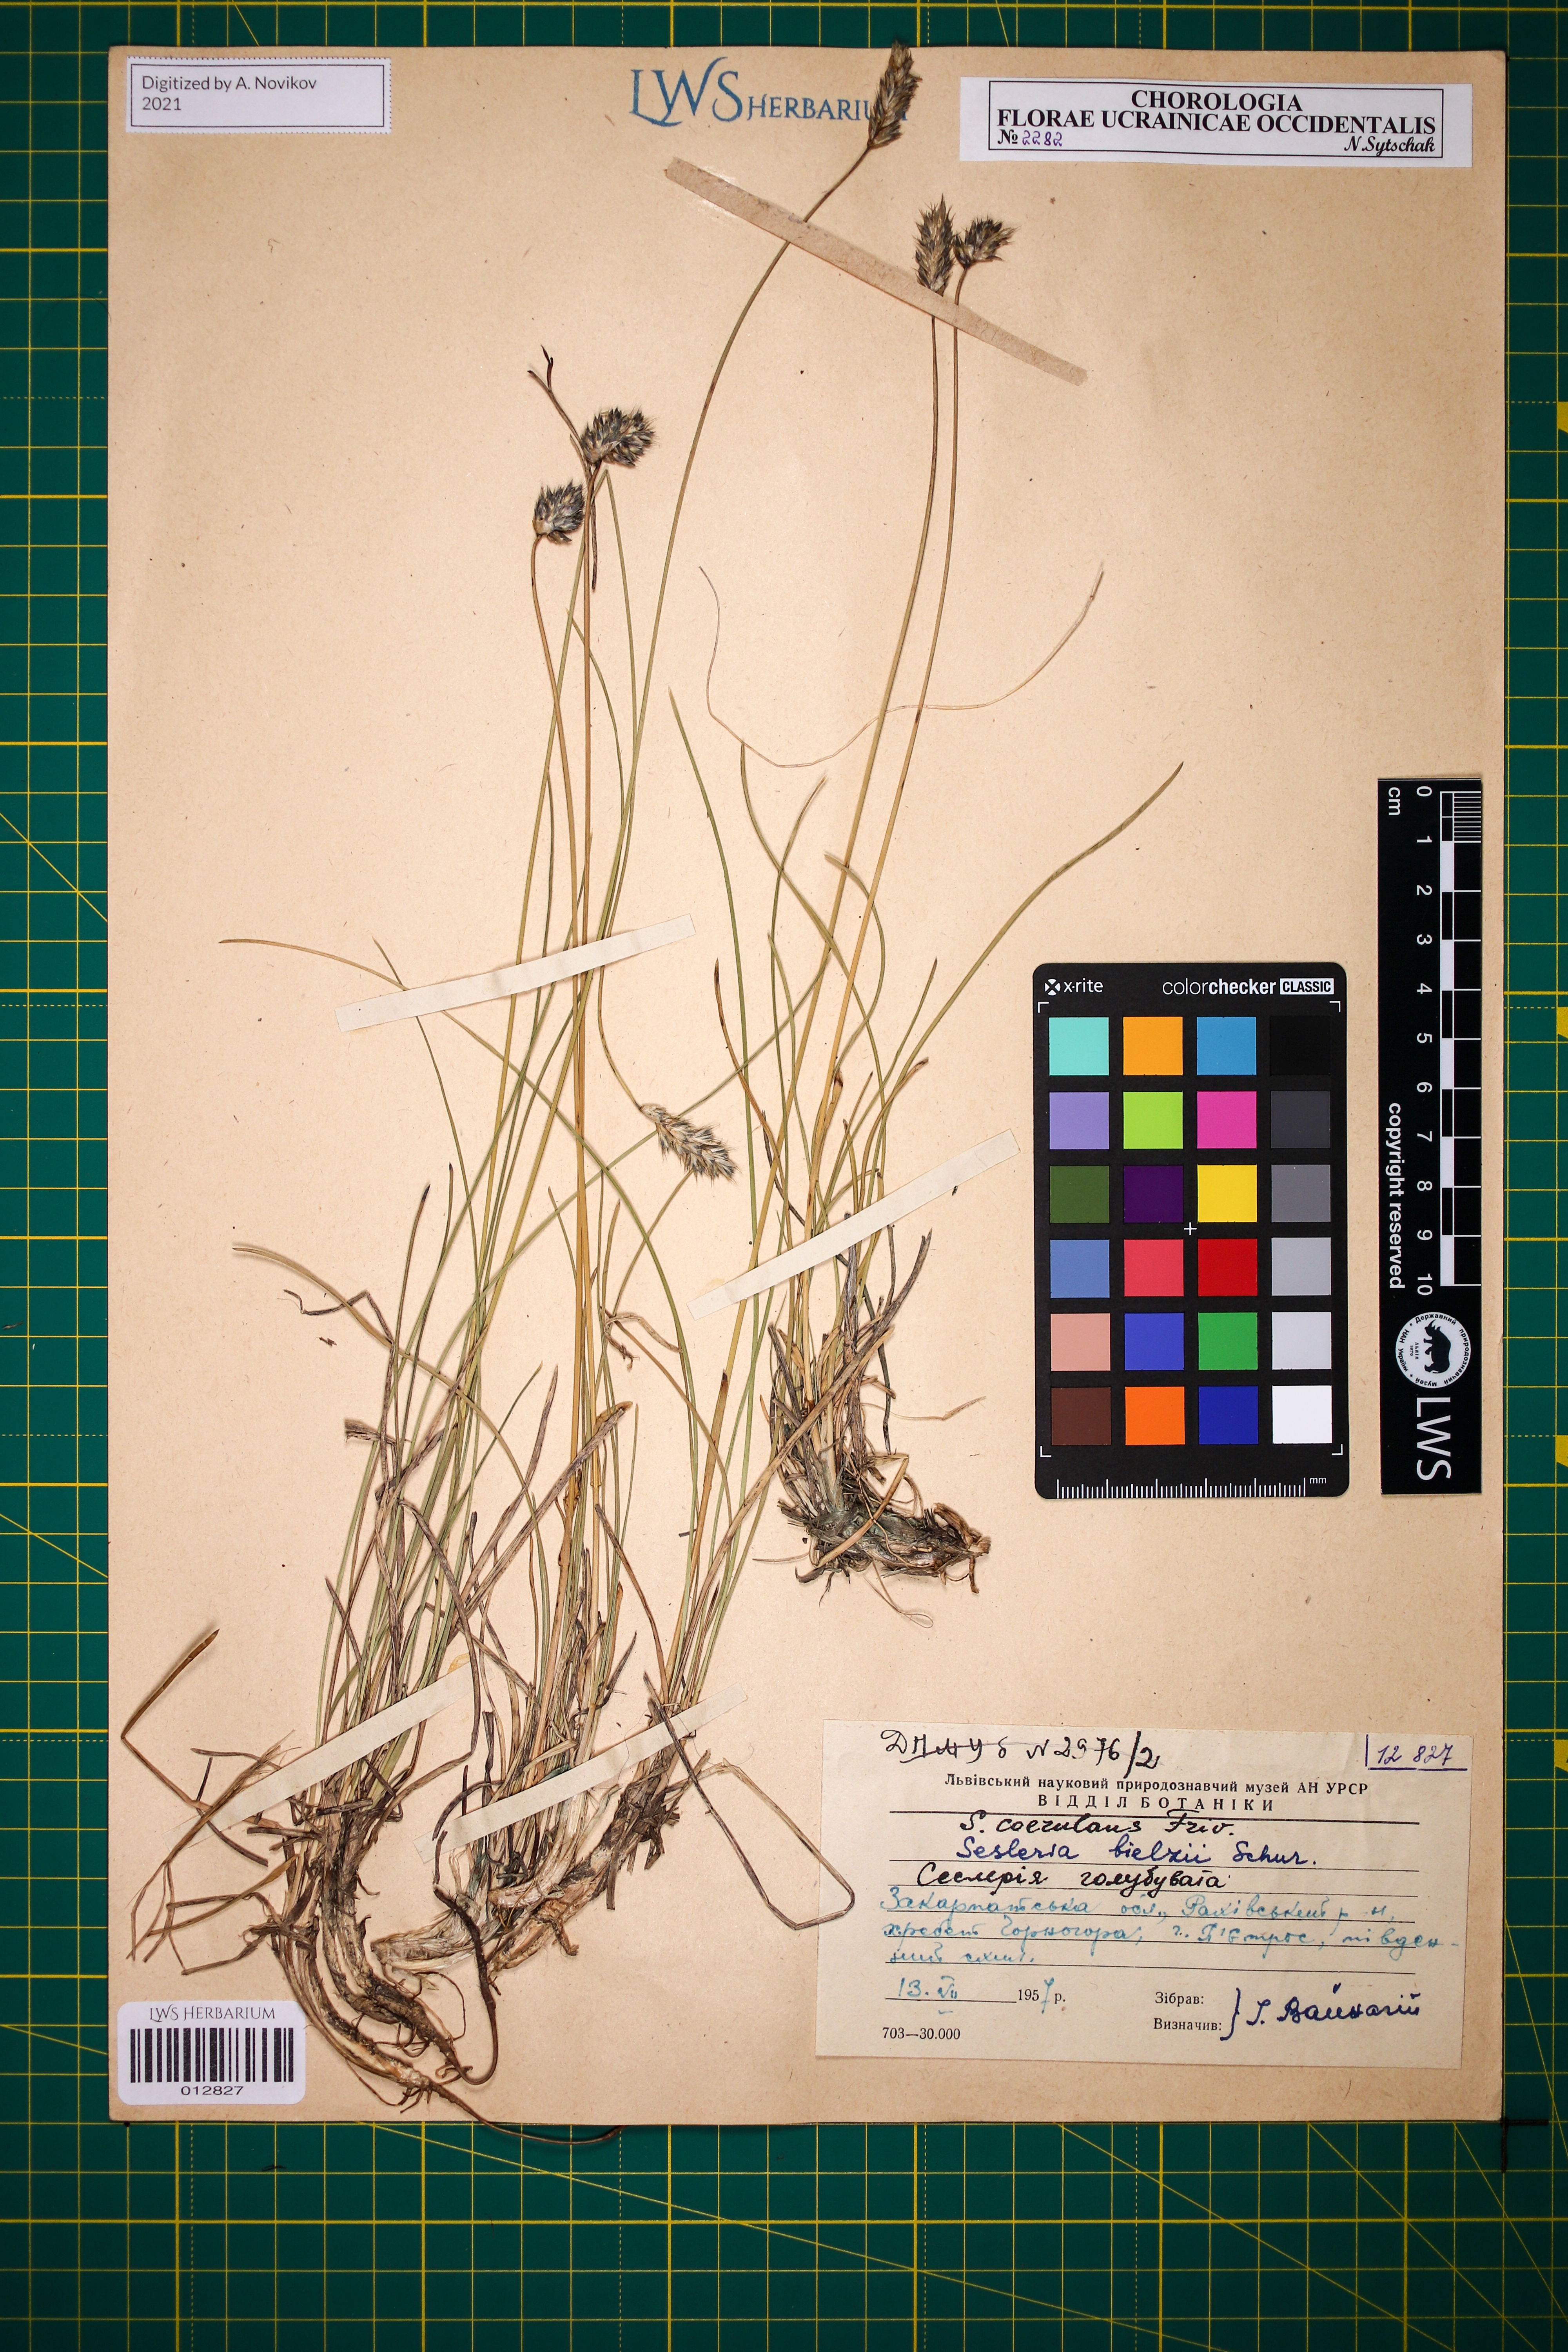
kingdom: Plantae
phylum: Tracheophyta
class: Liliopsida
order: Poales
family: Poaceae
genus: Sesleria
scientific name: Sesleria bielzii
